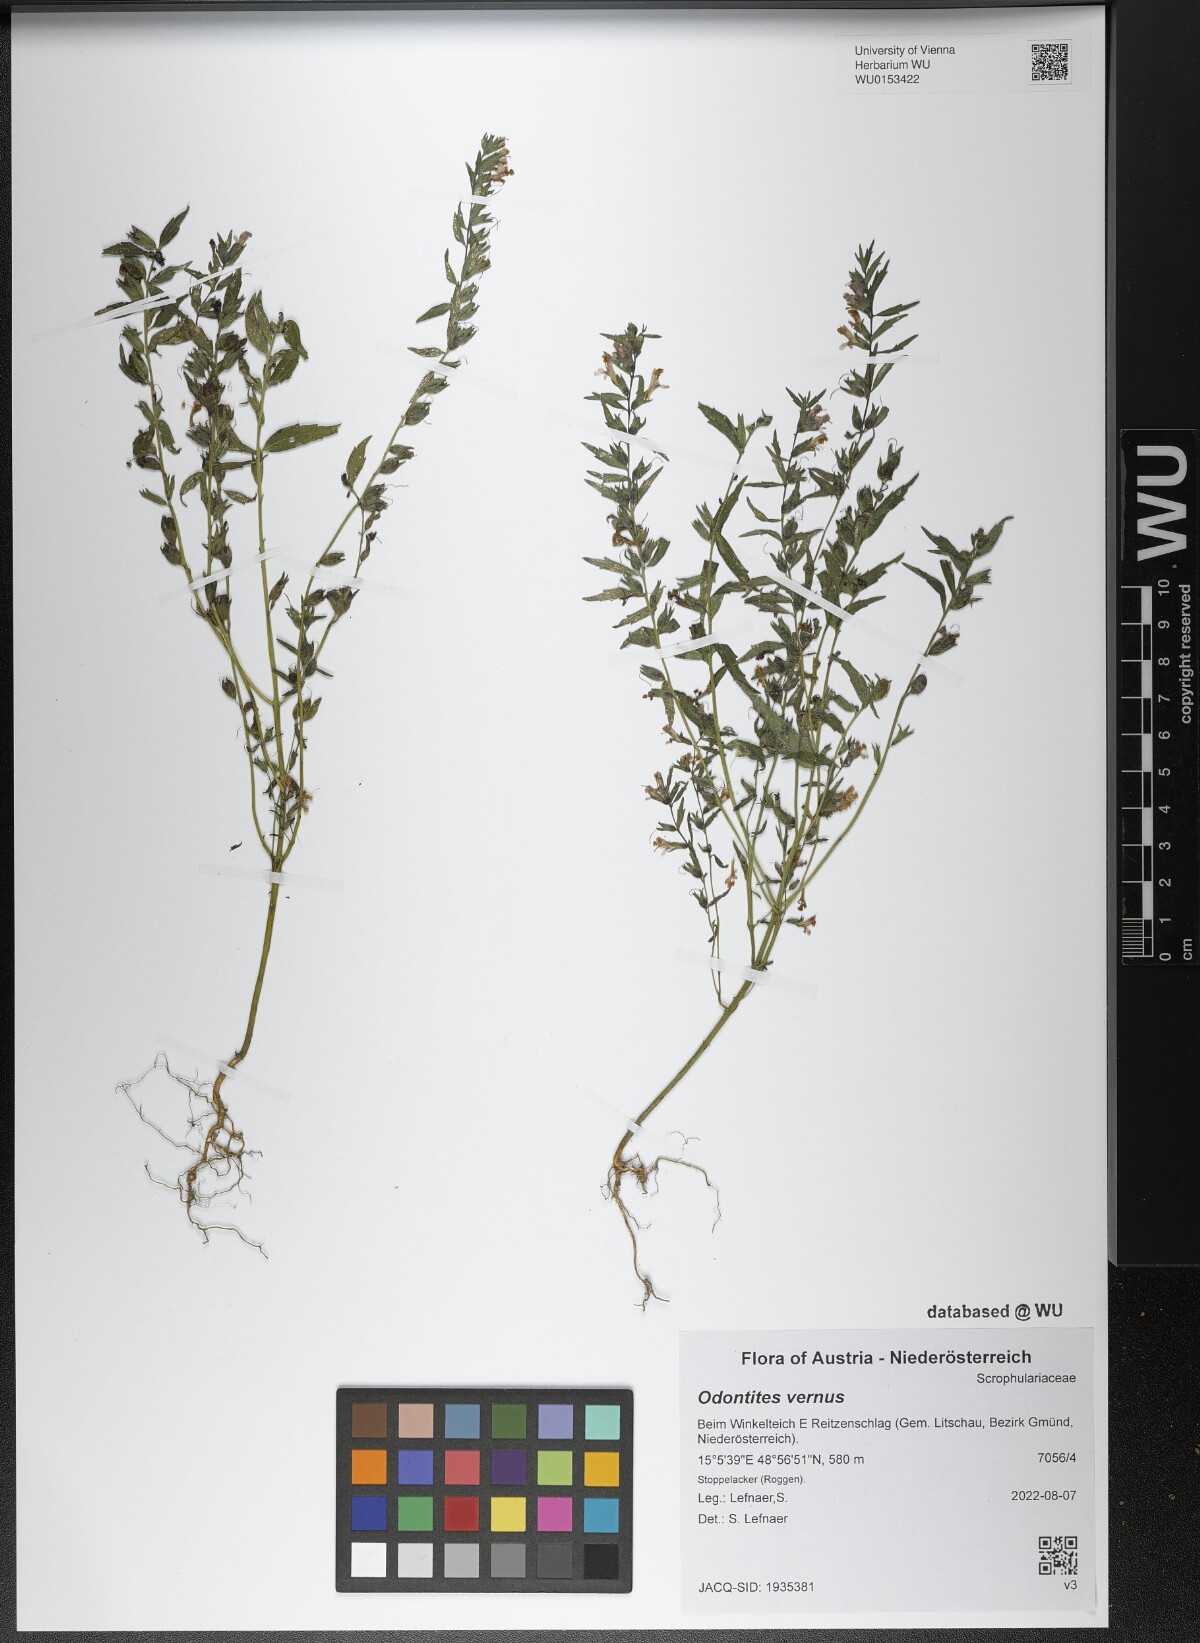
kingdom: Plantae
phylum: Tracheophyta
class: Magnoliopsida
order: Lamiales
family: Orobanchaceae
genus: Odontites
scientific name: Odontites vernus
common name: Red bartsia
